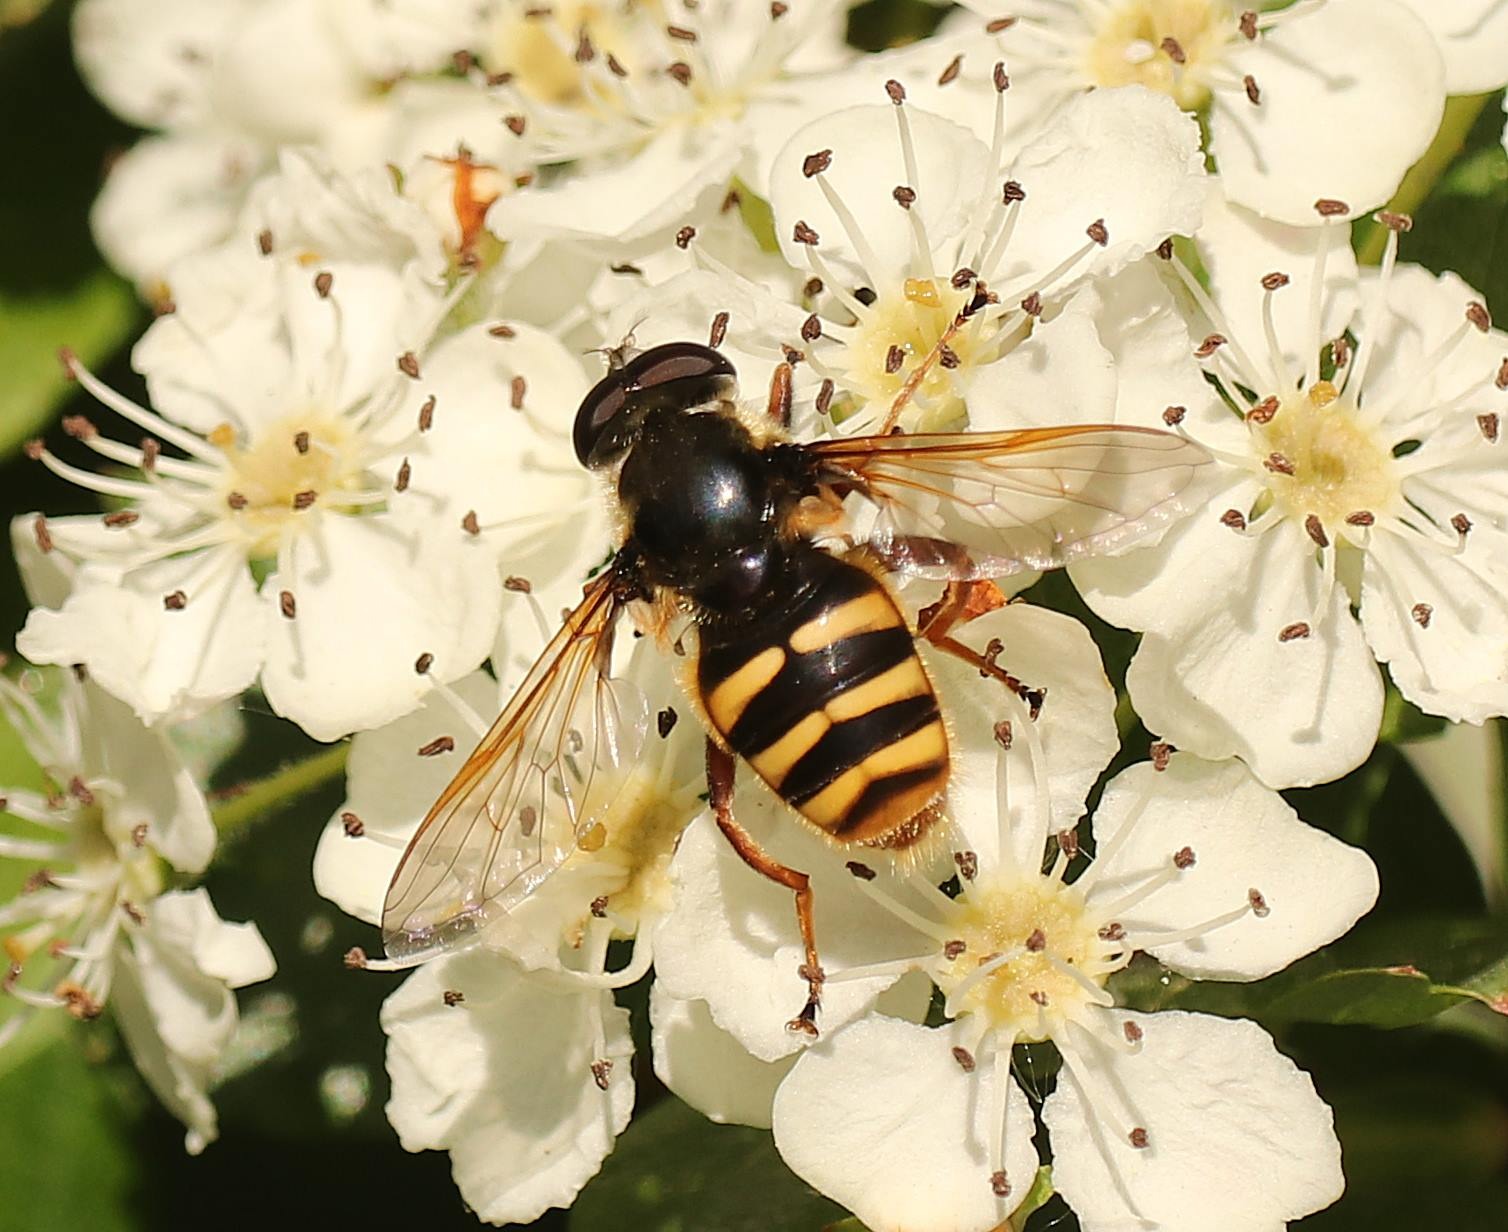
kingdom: Animalia
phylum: Arthropoda
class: Insecta
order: Diptera
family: Syrphidae
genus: Sericomyia
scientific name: Sericomyia silentis
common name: Tørve-silkesvirreflue
